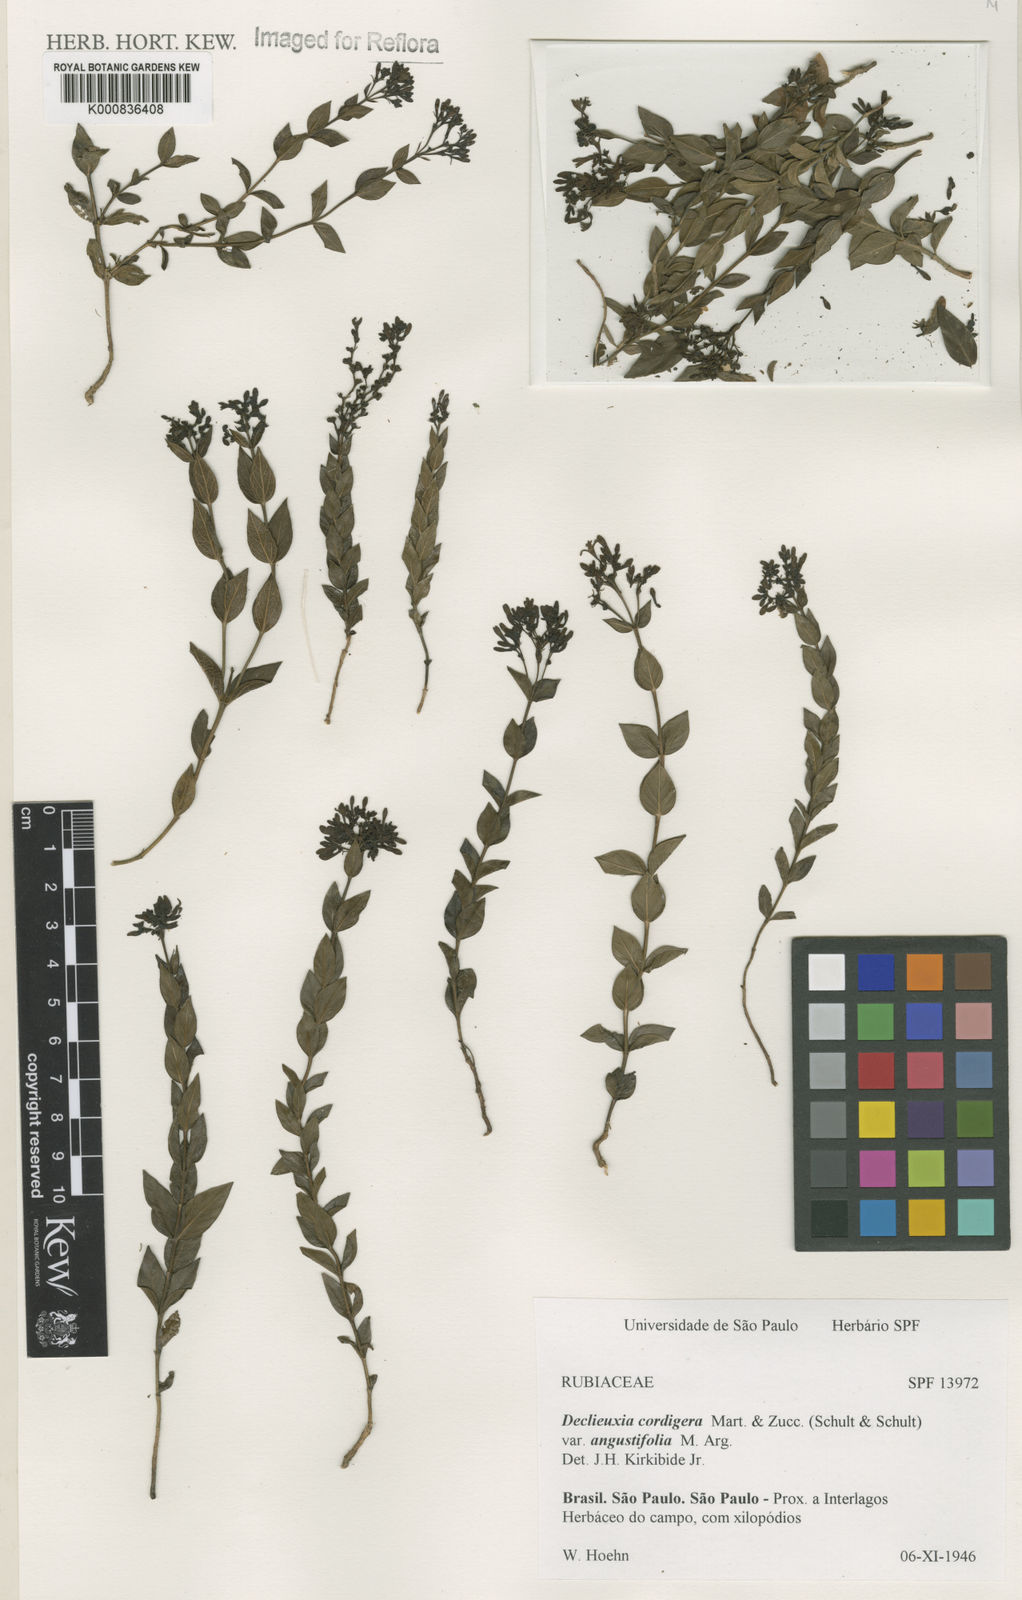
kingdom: Plantae
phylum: Tracheophyta
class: Magnoliopsida
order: Gentianales
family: Rubiaceae
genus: Declieuxia
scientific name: Declieuxia
